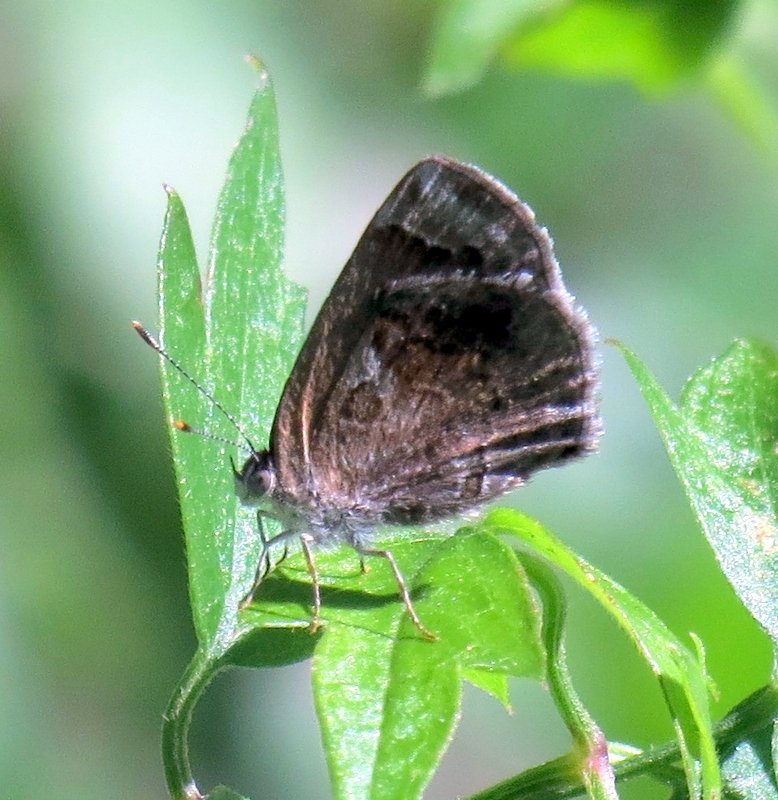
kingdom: Animalia
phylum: Arthropoda
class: Insecta
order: Lepidoptera
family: Lycaenidae
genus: Strymon
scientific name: Strymon bazochii
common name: Lantana Scrub-Hairstreak
